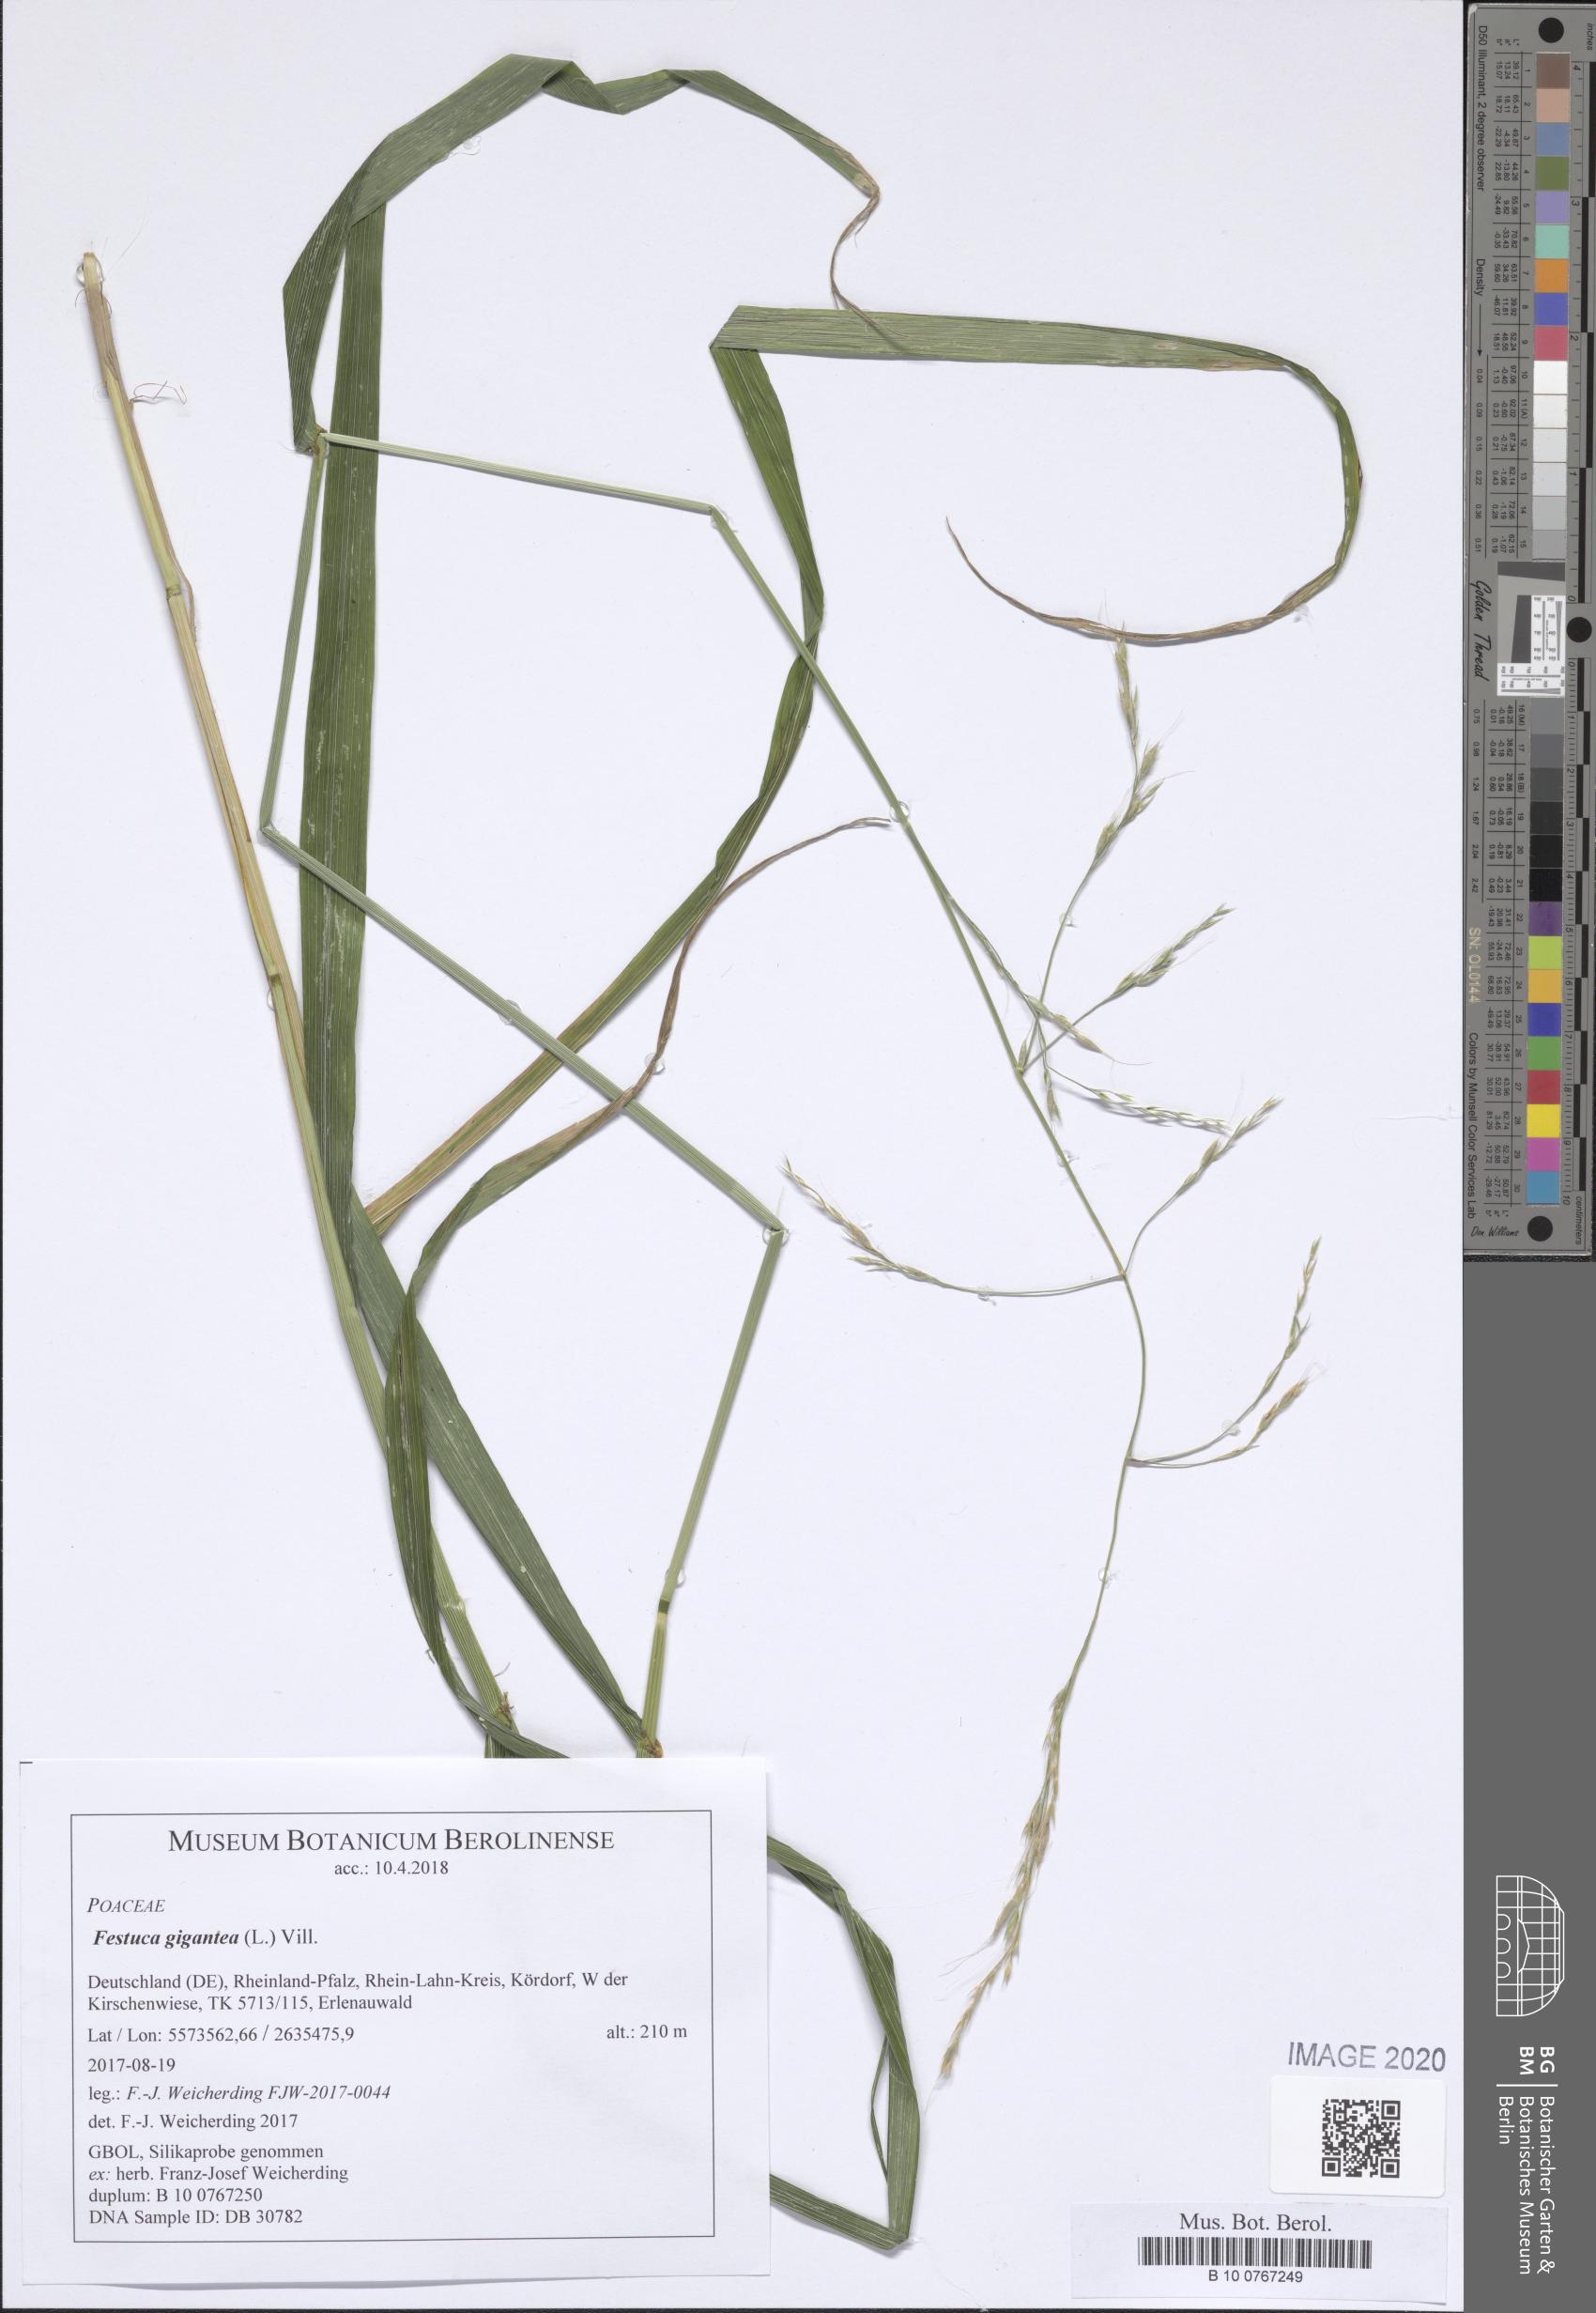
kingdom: Plantae
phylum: Tracheophyta
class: Liliopsida
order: Poales
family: Poaceae
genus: Lolium
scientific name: Lolium giganteum
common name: Giant fescue
